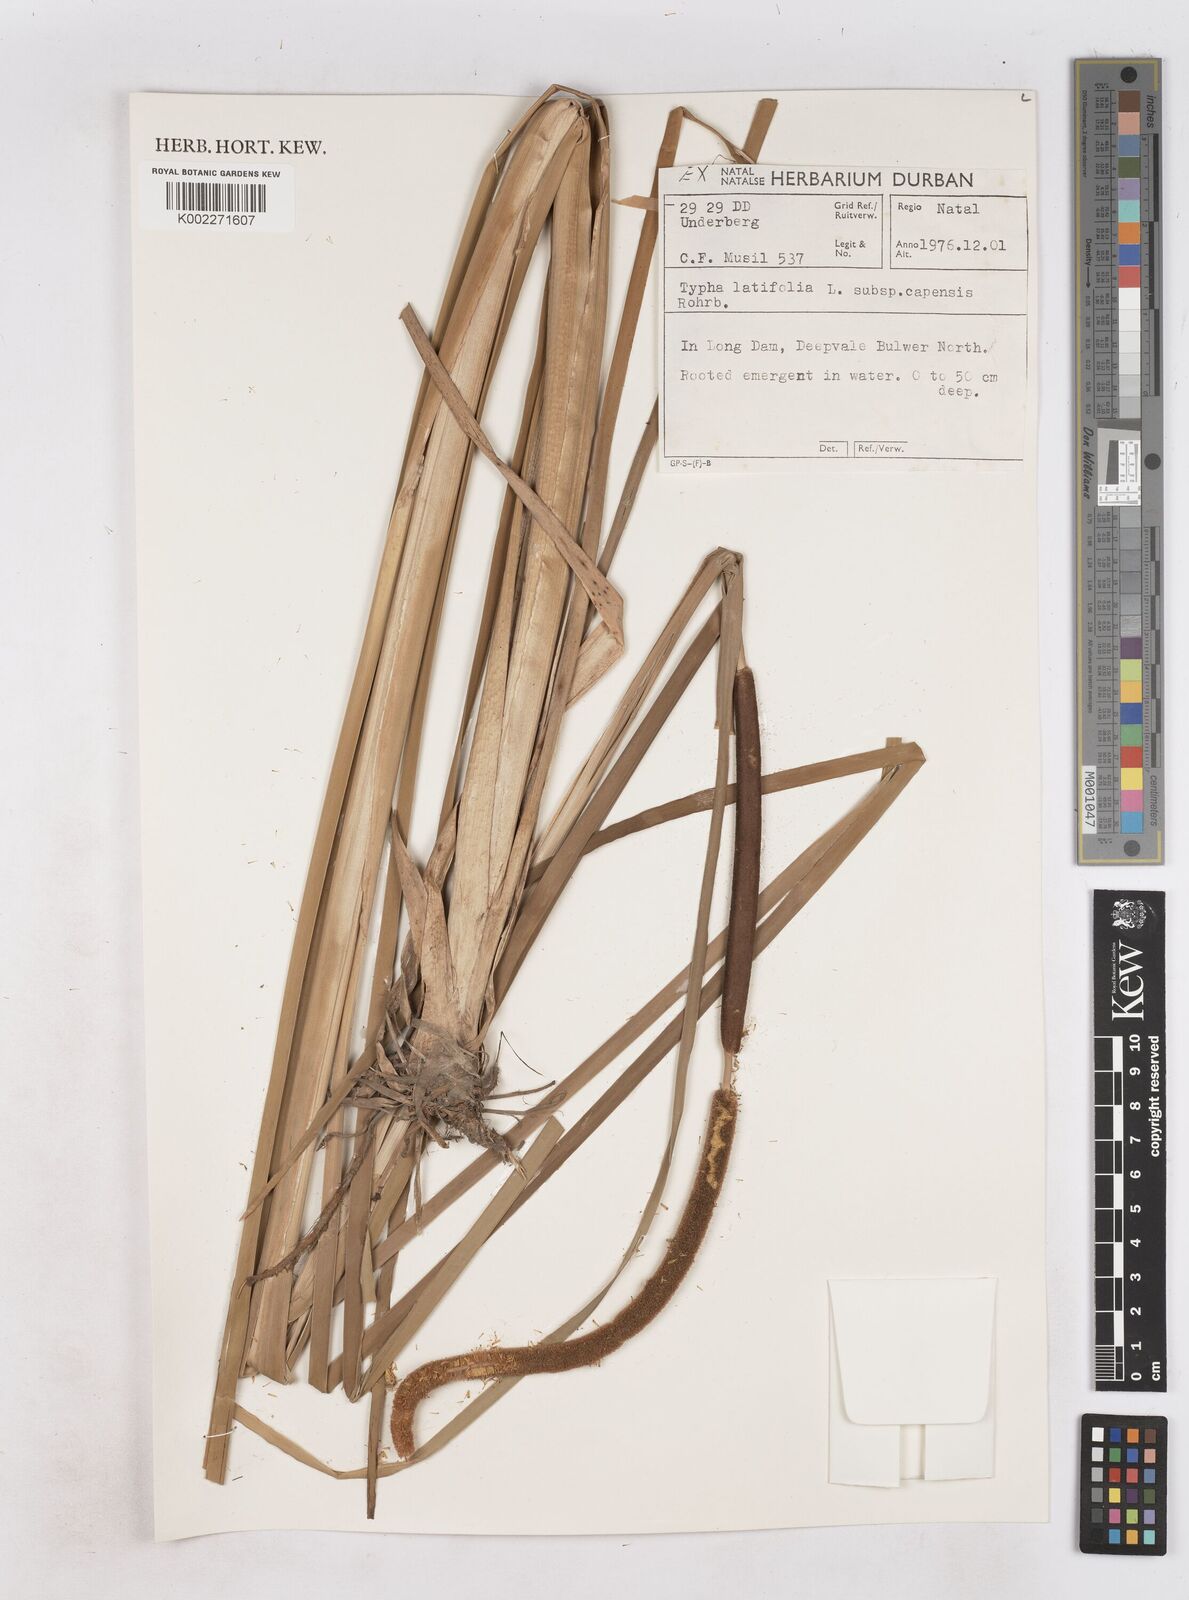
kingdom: Plantae
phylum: Tracheophyta
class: Liliopsida
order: Poales
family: Typhaceae
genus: Typha
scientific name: Typha capensis
